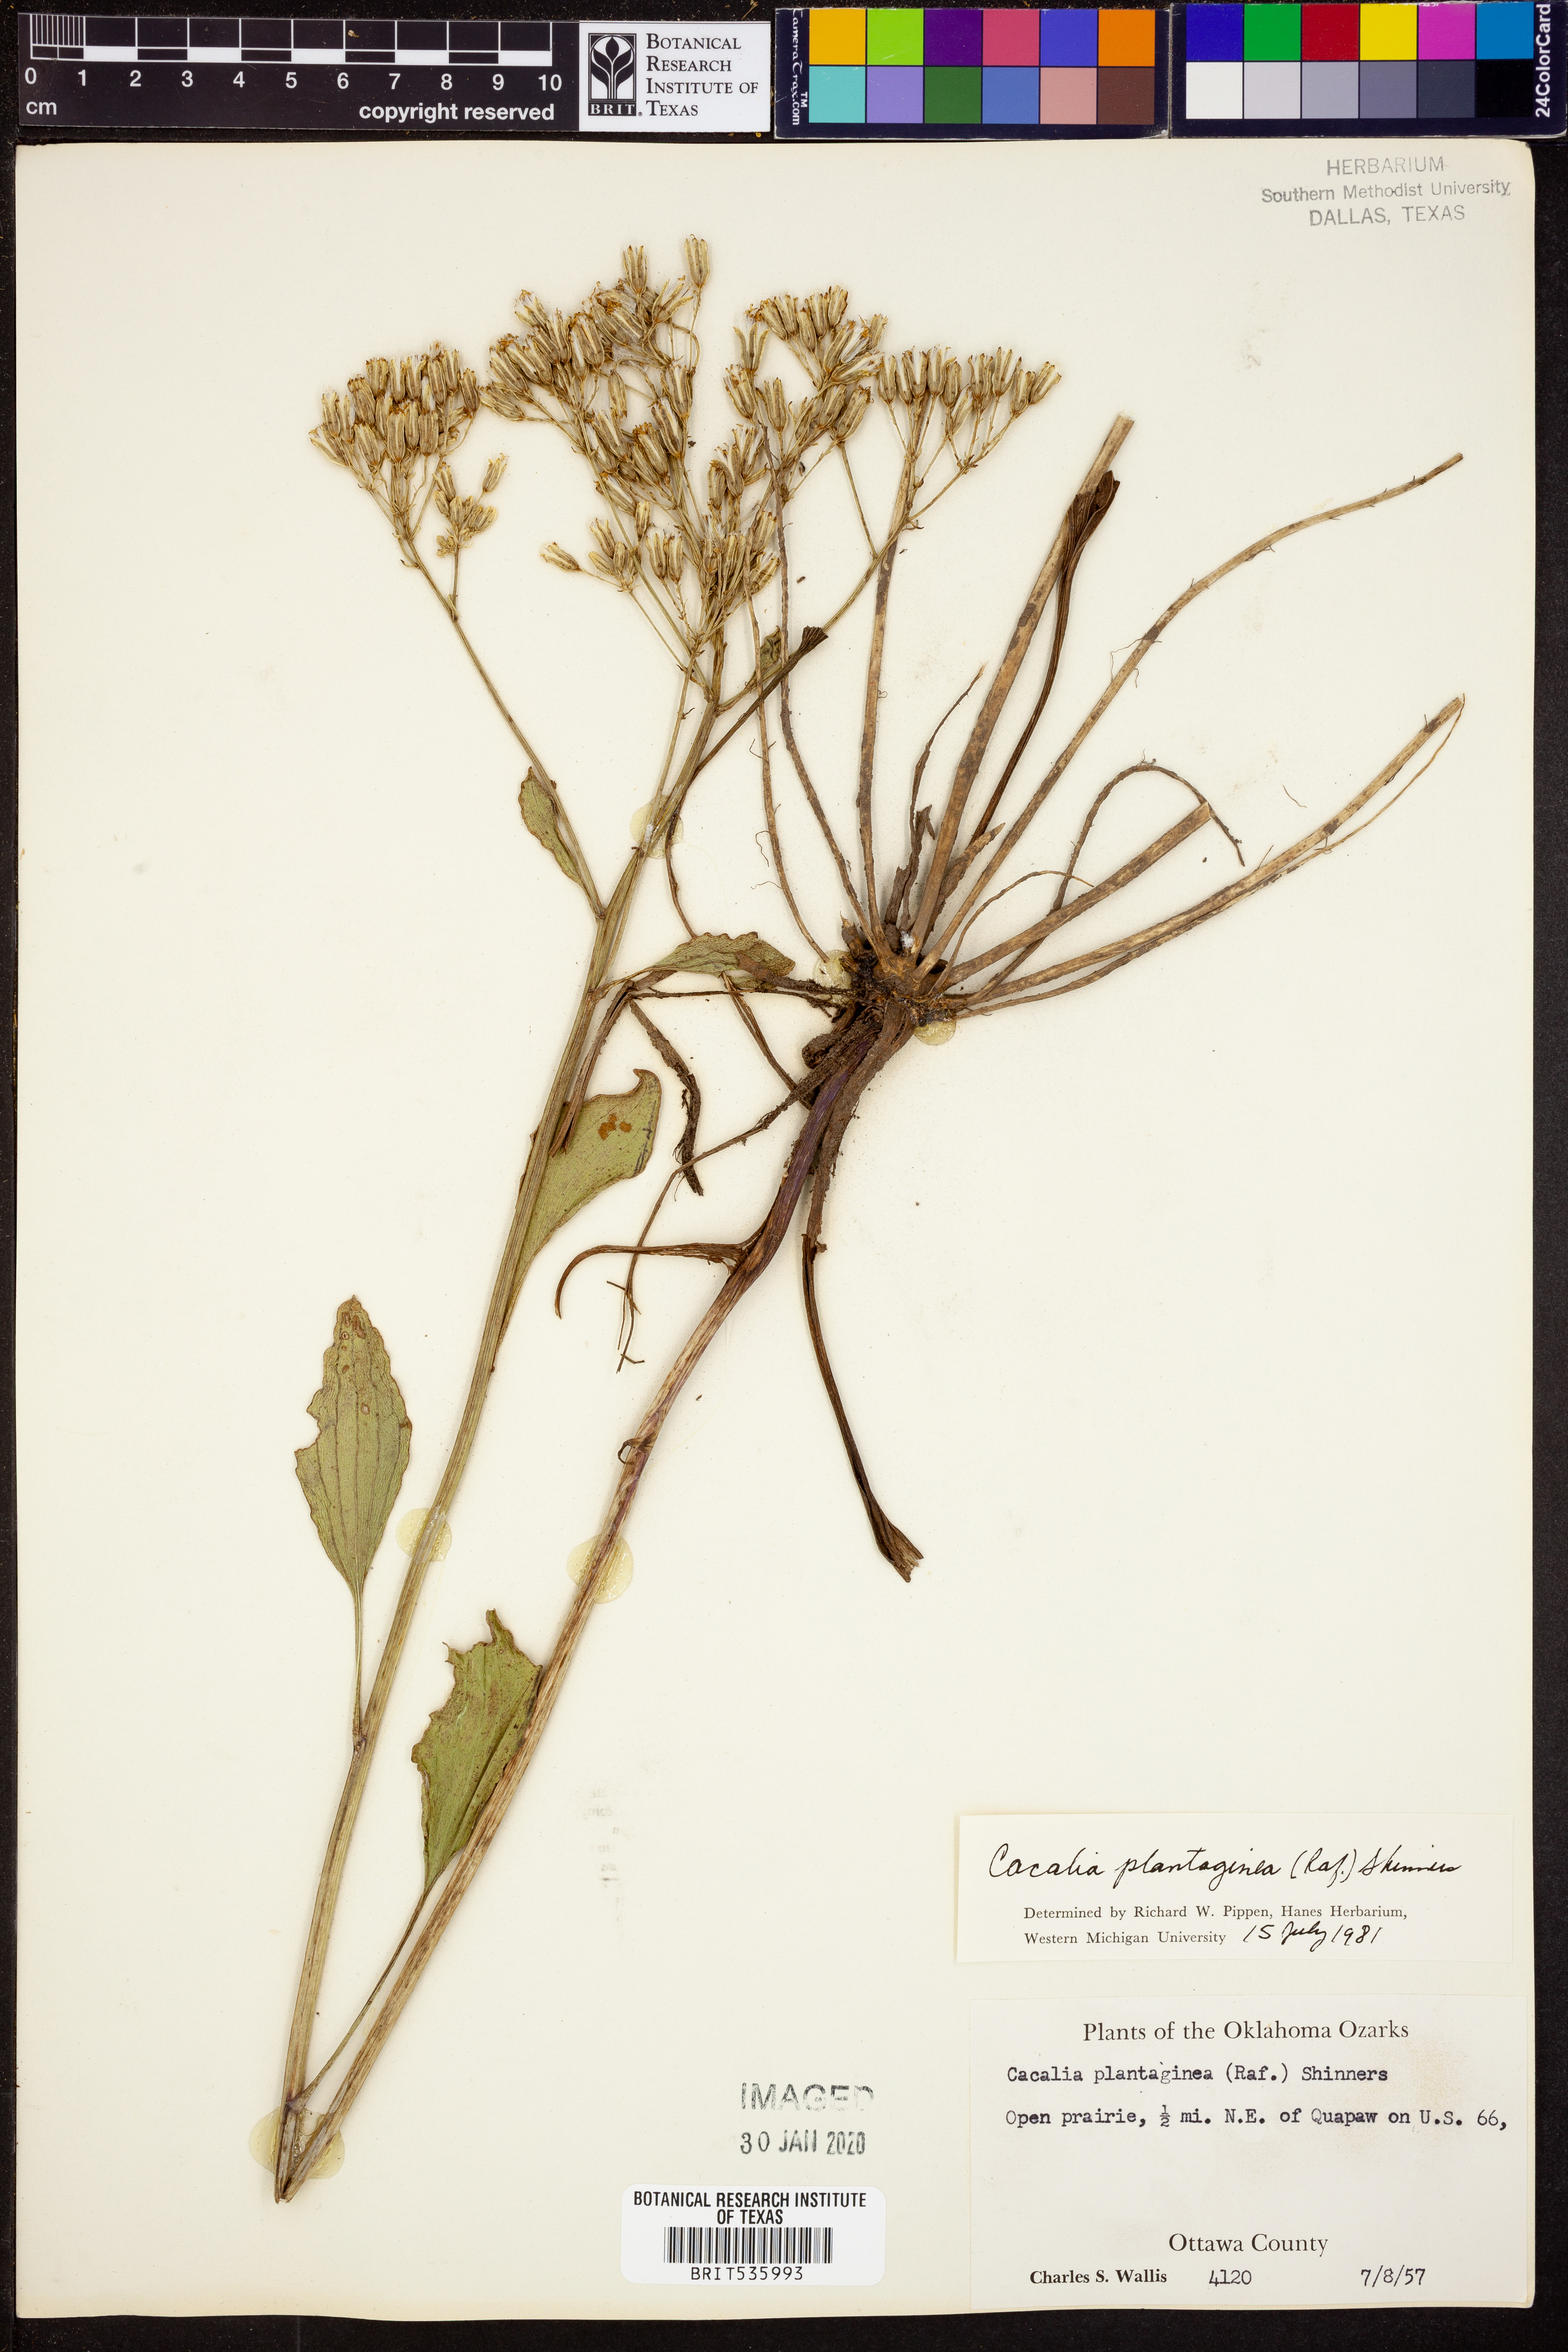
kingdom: Plantae
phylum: Tracheophyta
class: Magnoliopsida
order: Asterales
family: Asteraceae
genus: Arnoglossum
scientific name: Arnoglossum plantagineum
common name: Groove-stemmed indian-plantain
